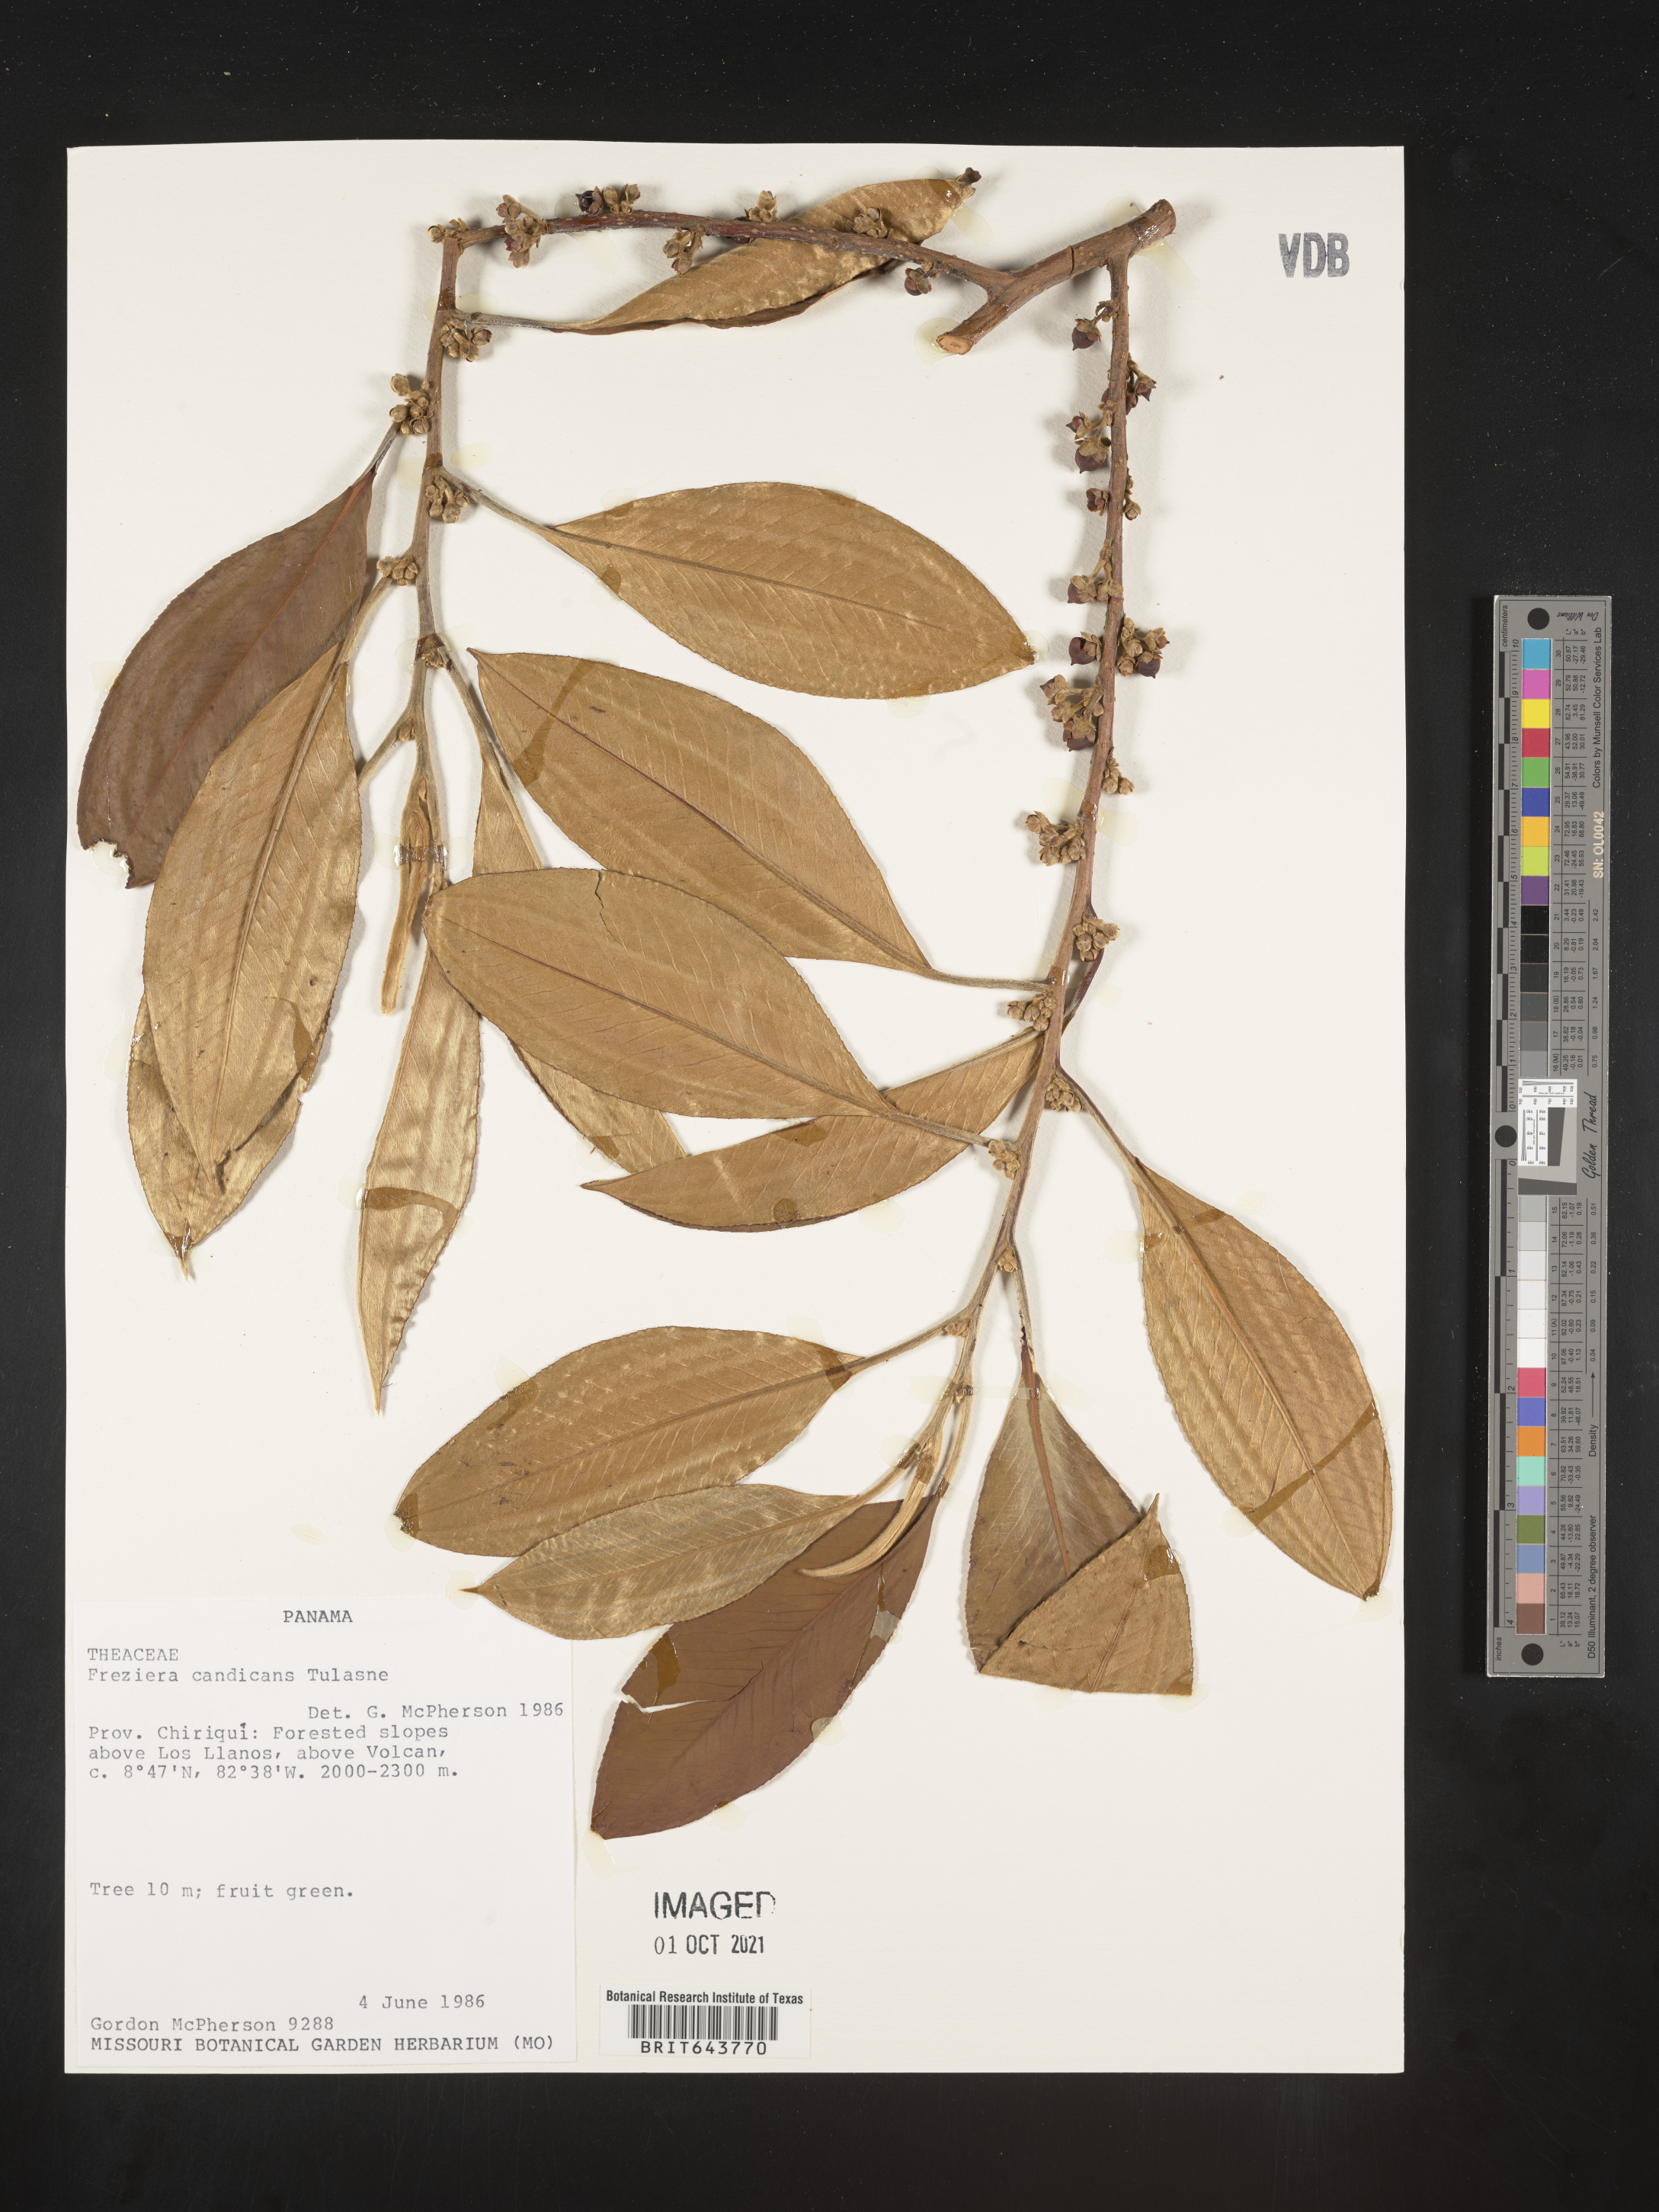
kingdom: Plantae
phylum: Tracheophyta
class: Magnoliopsida
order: Ericales
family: Pentaphylacaceae
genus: Freziera
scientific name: Freziera
